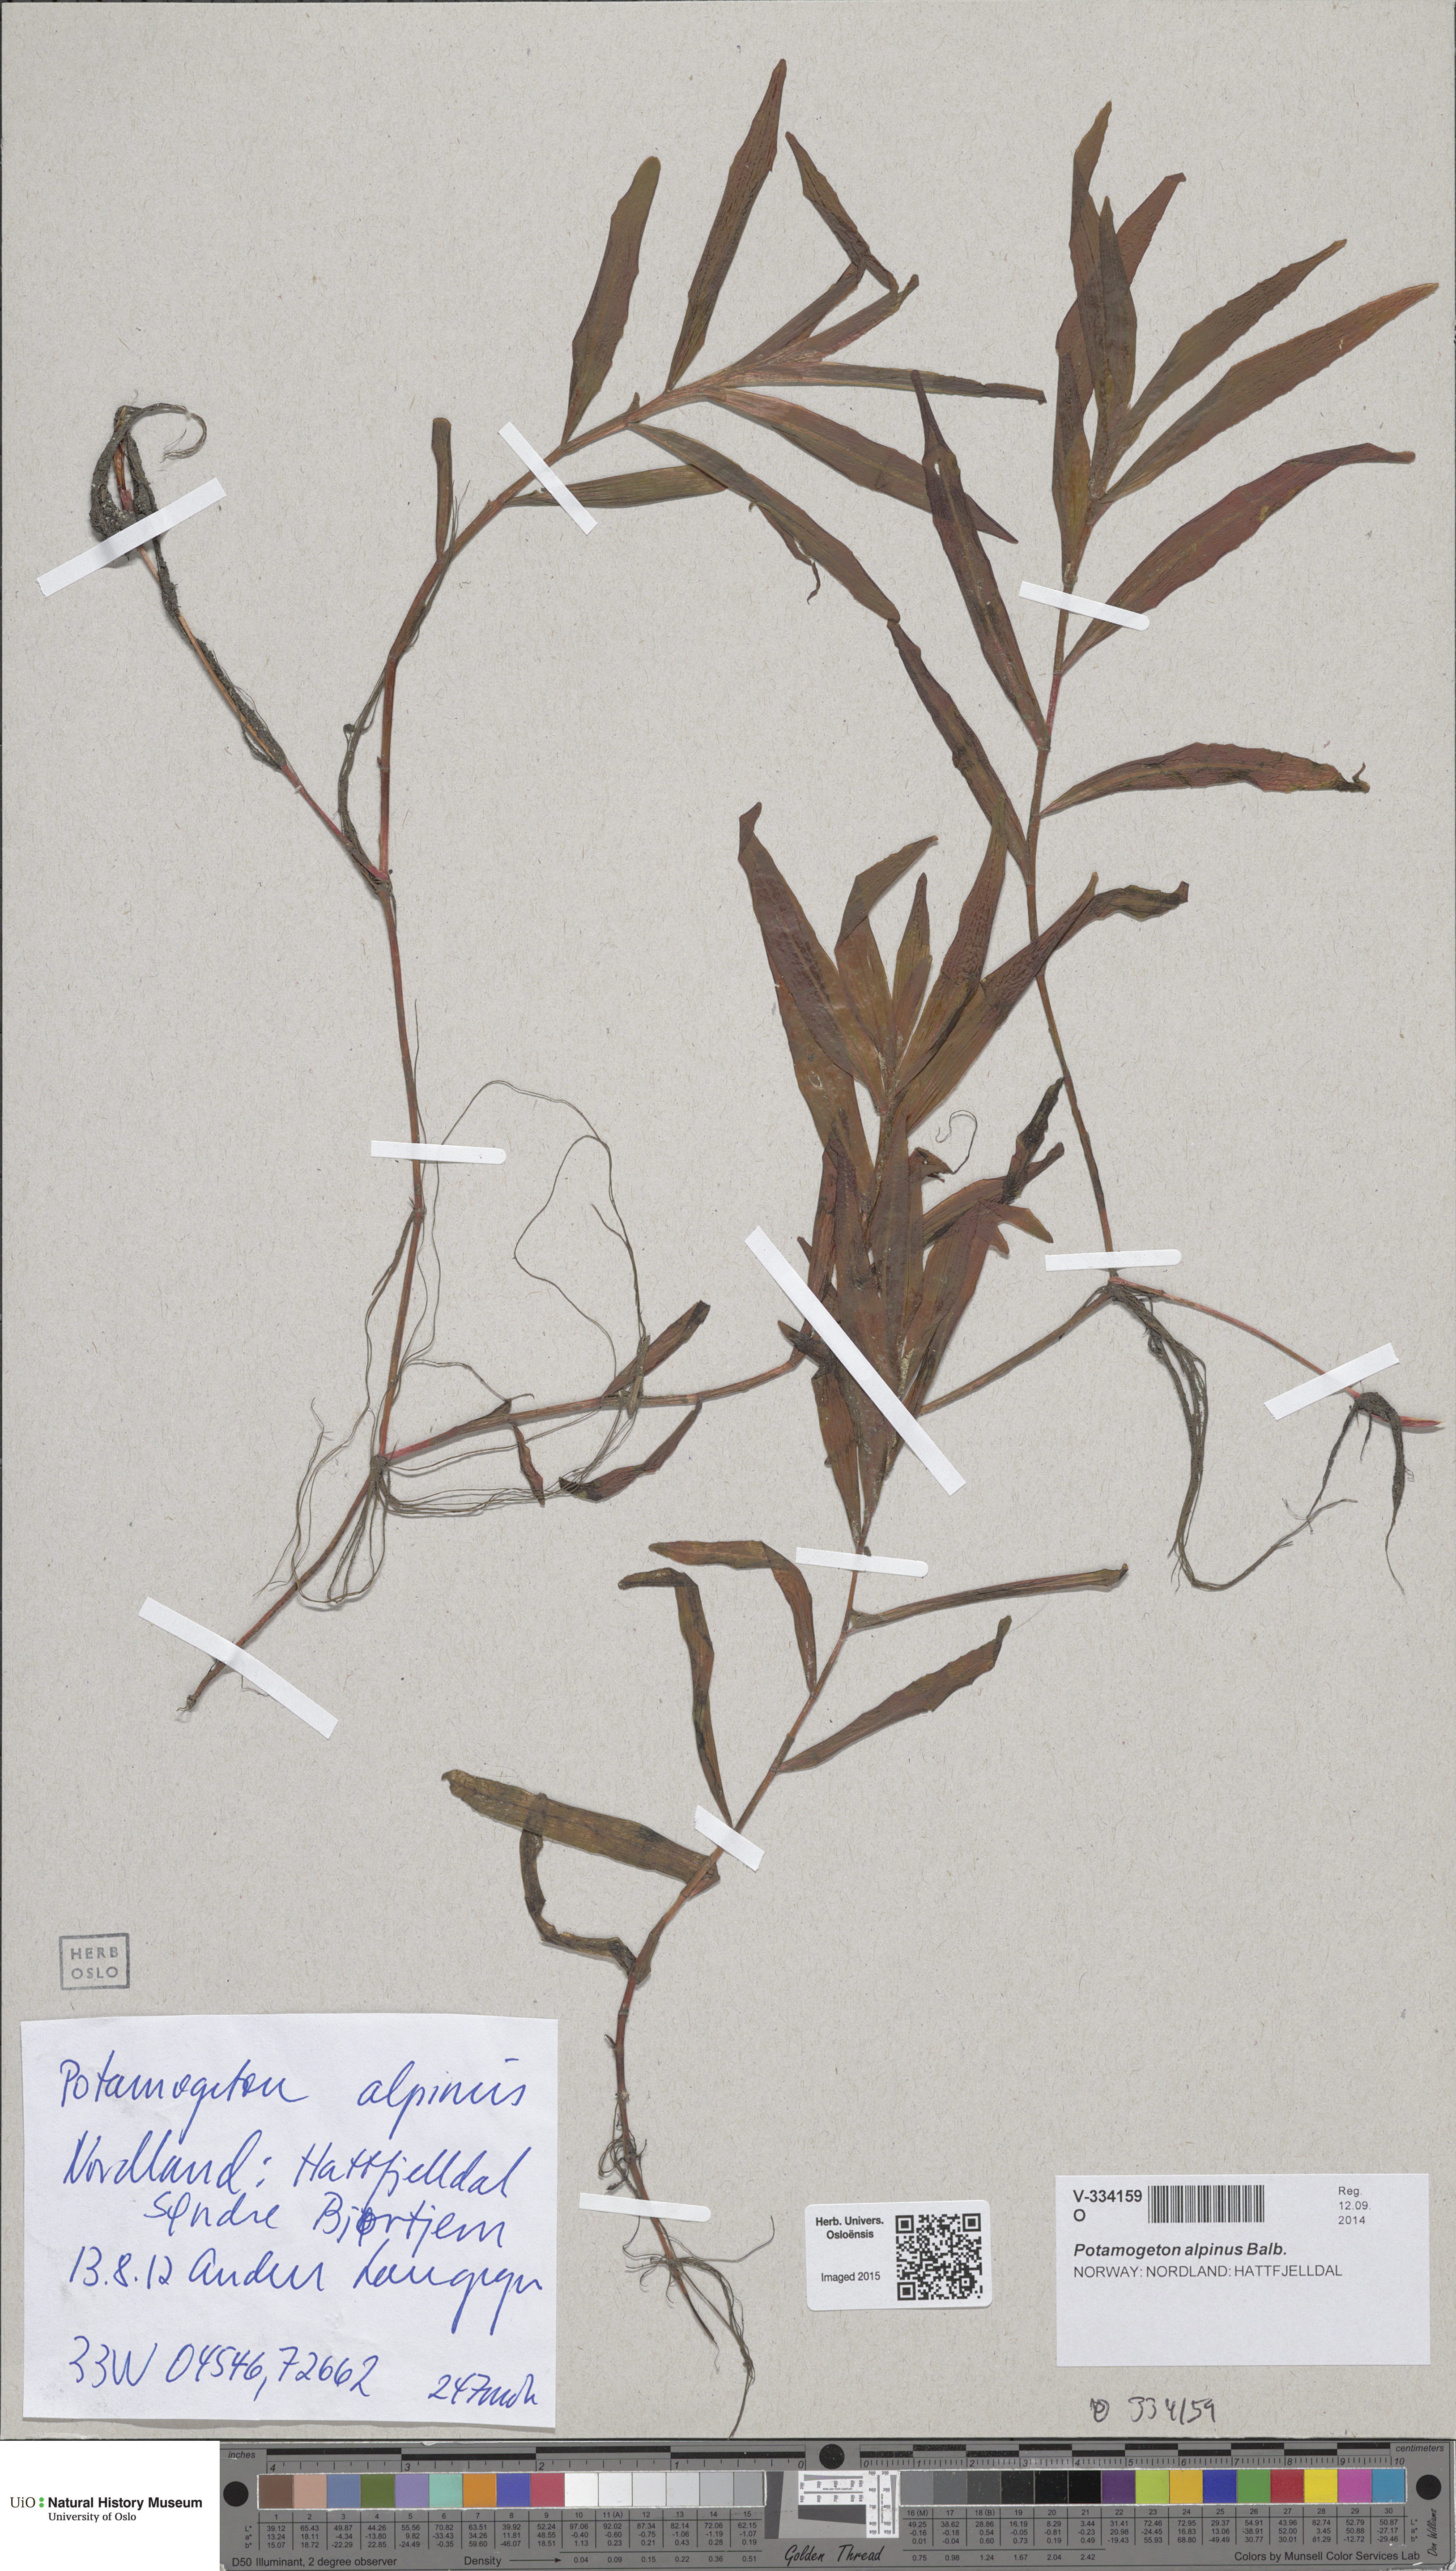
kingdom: Plantae
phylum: Tracheophyta
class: Liliopsida
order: Alismatales
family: Potamogetonaceae
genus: Potamogeton
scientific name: Potamogeton alpinus
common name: Red pondweed
